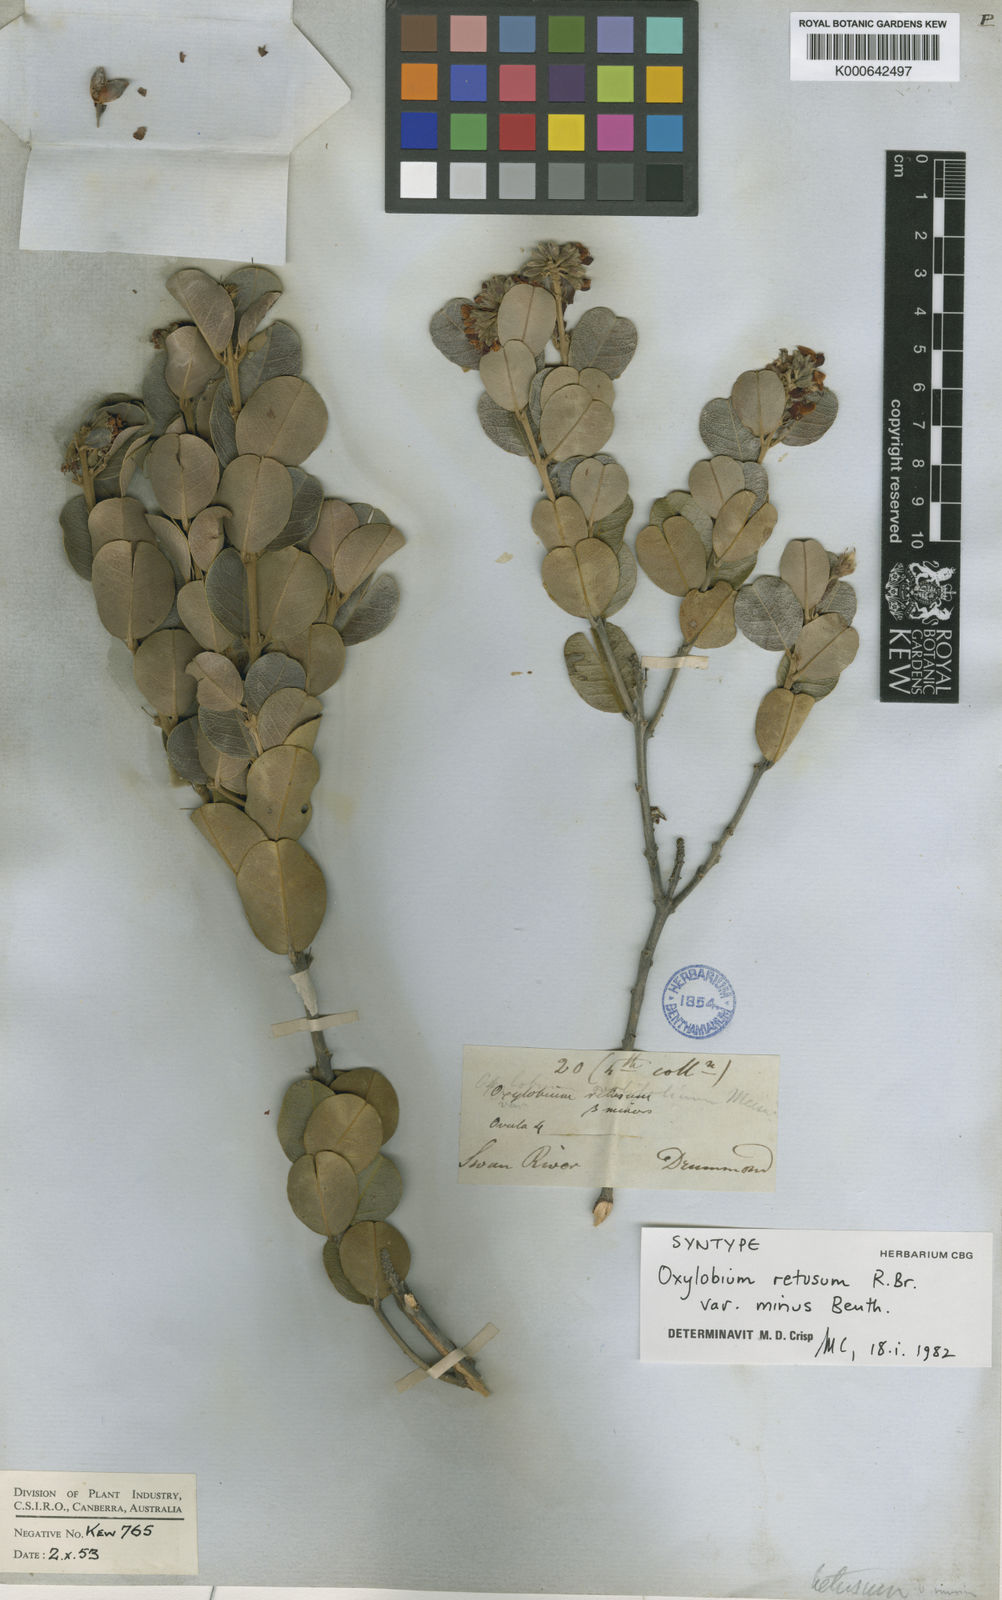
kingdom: Plantae
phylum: Tracheophyta
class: Magnoliopsida
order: Fabales
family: Fabaceae
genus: Gastrolobium
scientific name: Gastrolobium congestum
